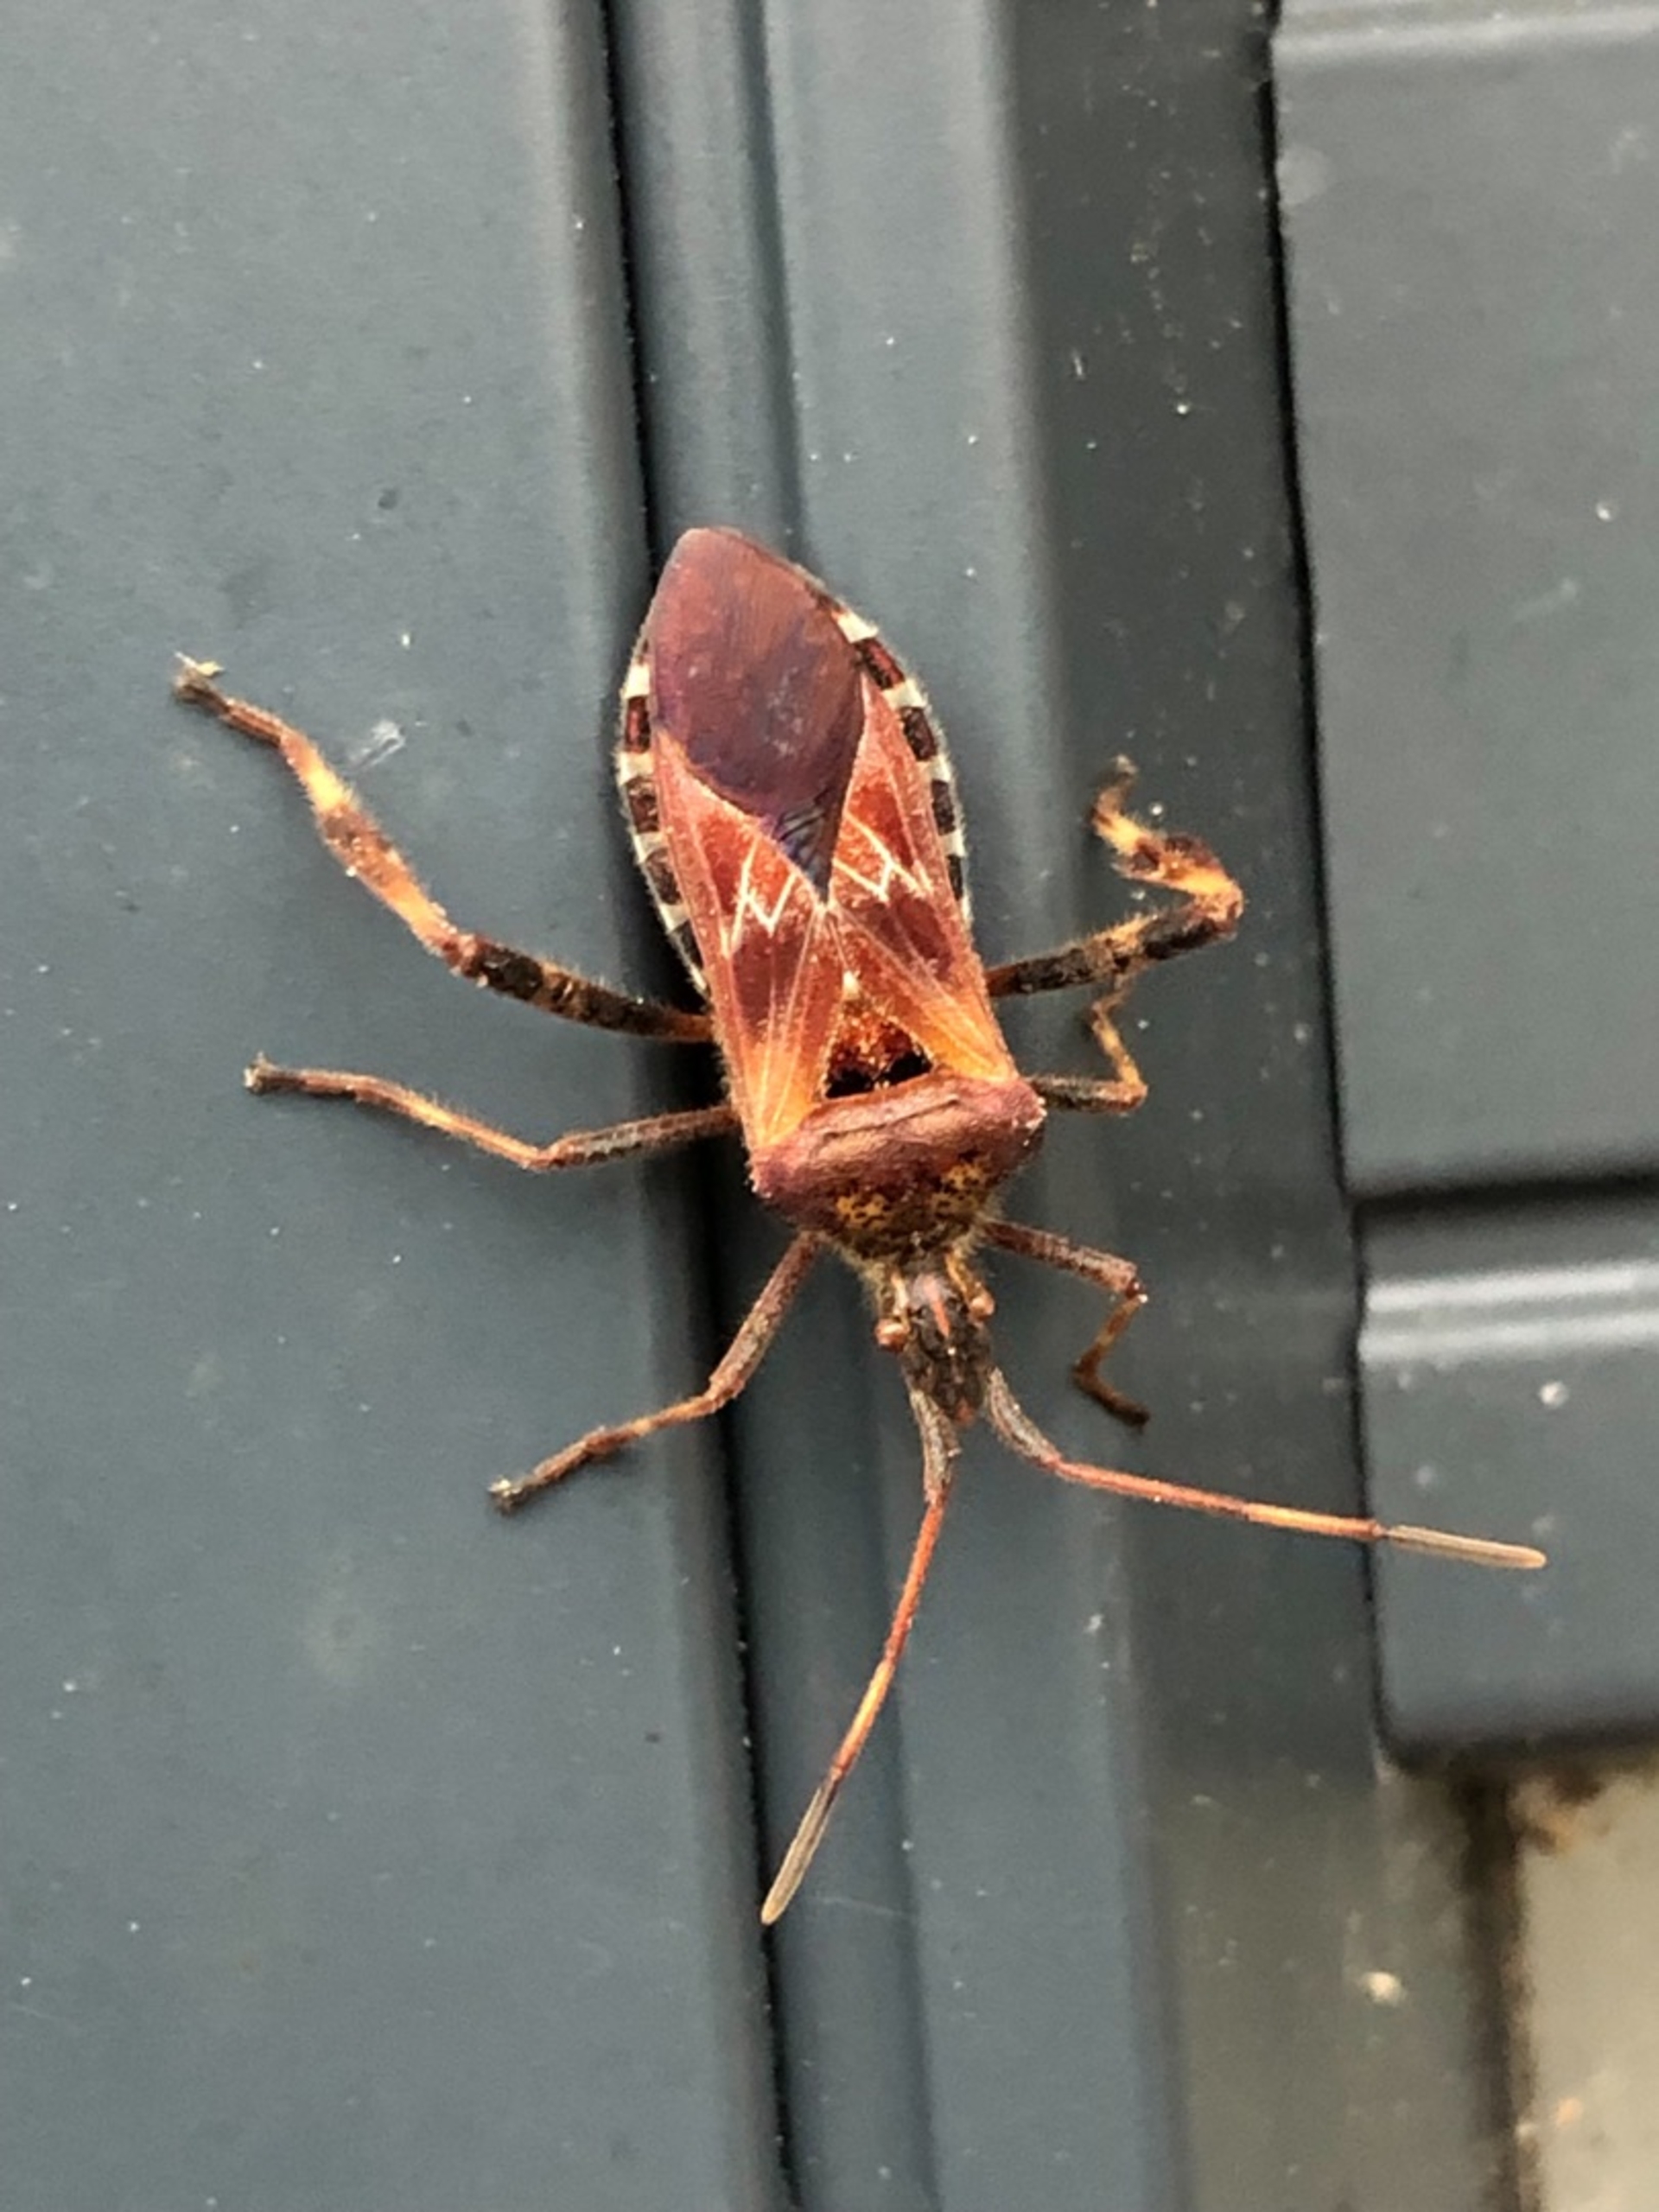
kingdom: Animalia
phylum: Arthropoda
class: Insecta
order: Hemiptera
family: Coreidae
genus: Leptoglossus
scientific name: Leptoglossus occidentalis
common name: Amerikansk fyrretæge
